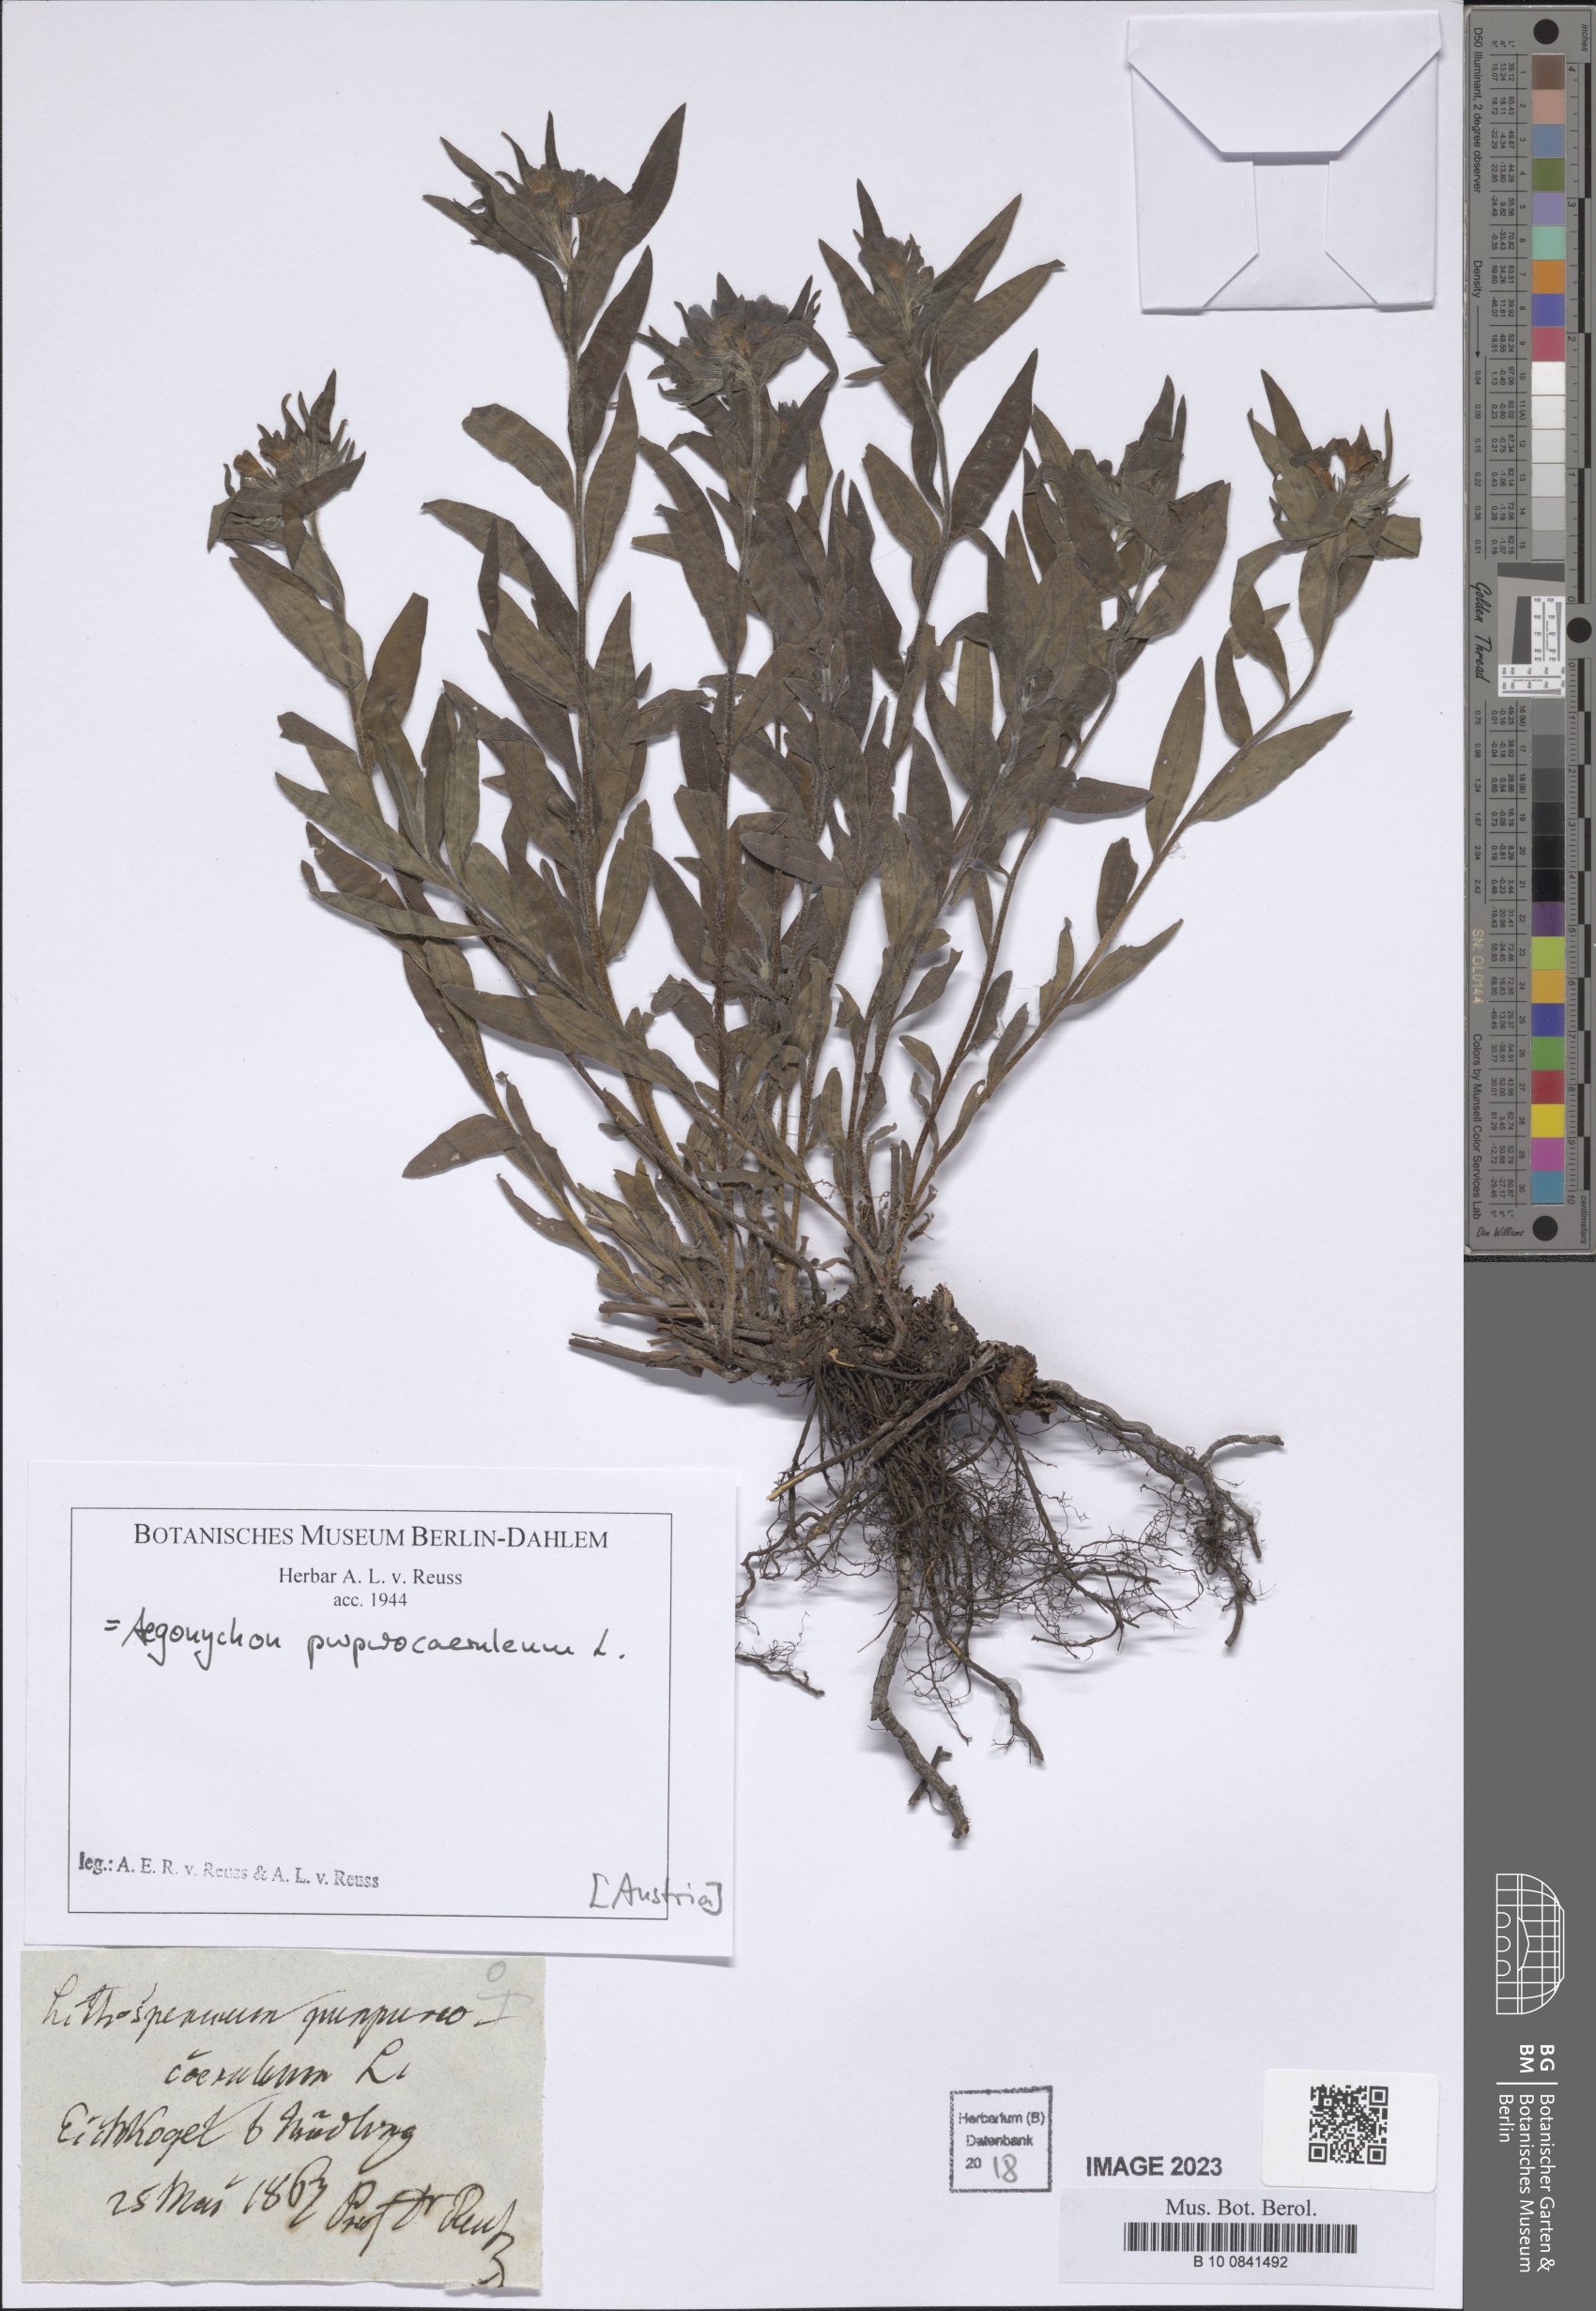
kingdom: Plantae
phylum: Tracheophyta
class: Magnoliopsida
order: Boraginales
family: Boraginaceae
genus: Aegonychon
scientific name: Aegonychon purpurocaeruleum
